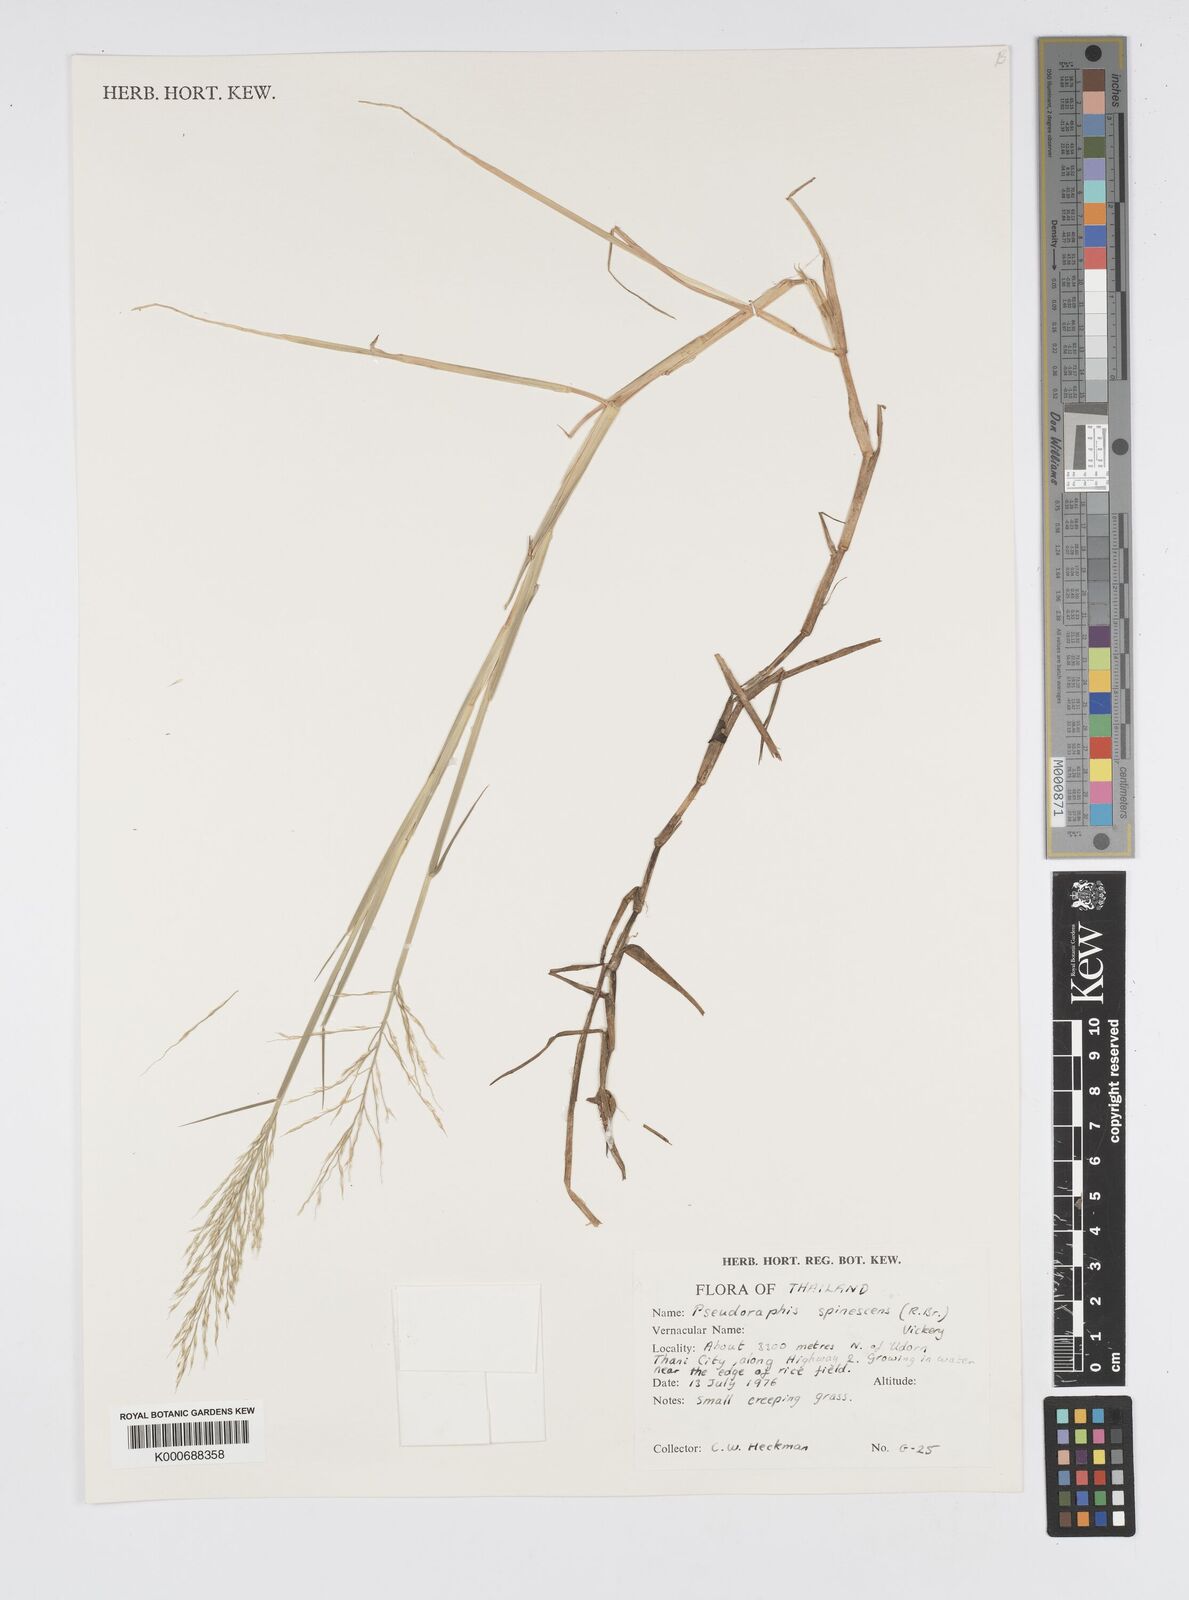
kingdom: Plantae
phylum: Tracheophyta
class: Liliopsida
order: Poales
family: Poaceae
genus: Pseudoraphis
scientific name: Pseudoraphis spinescens
